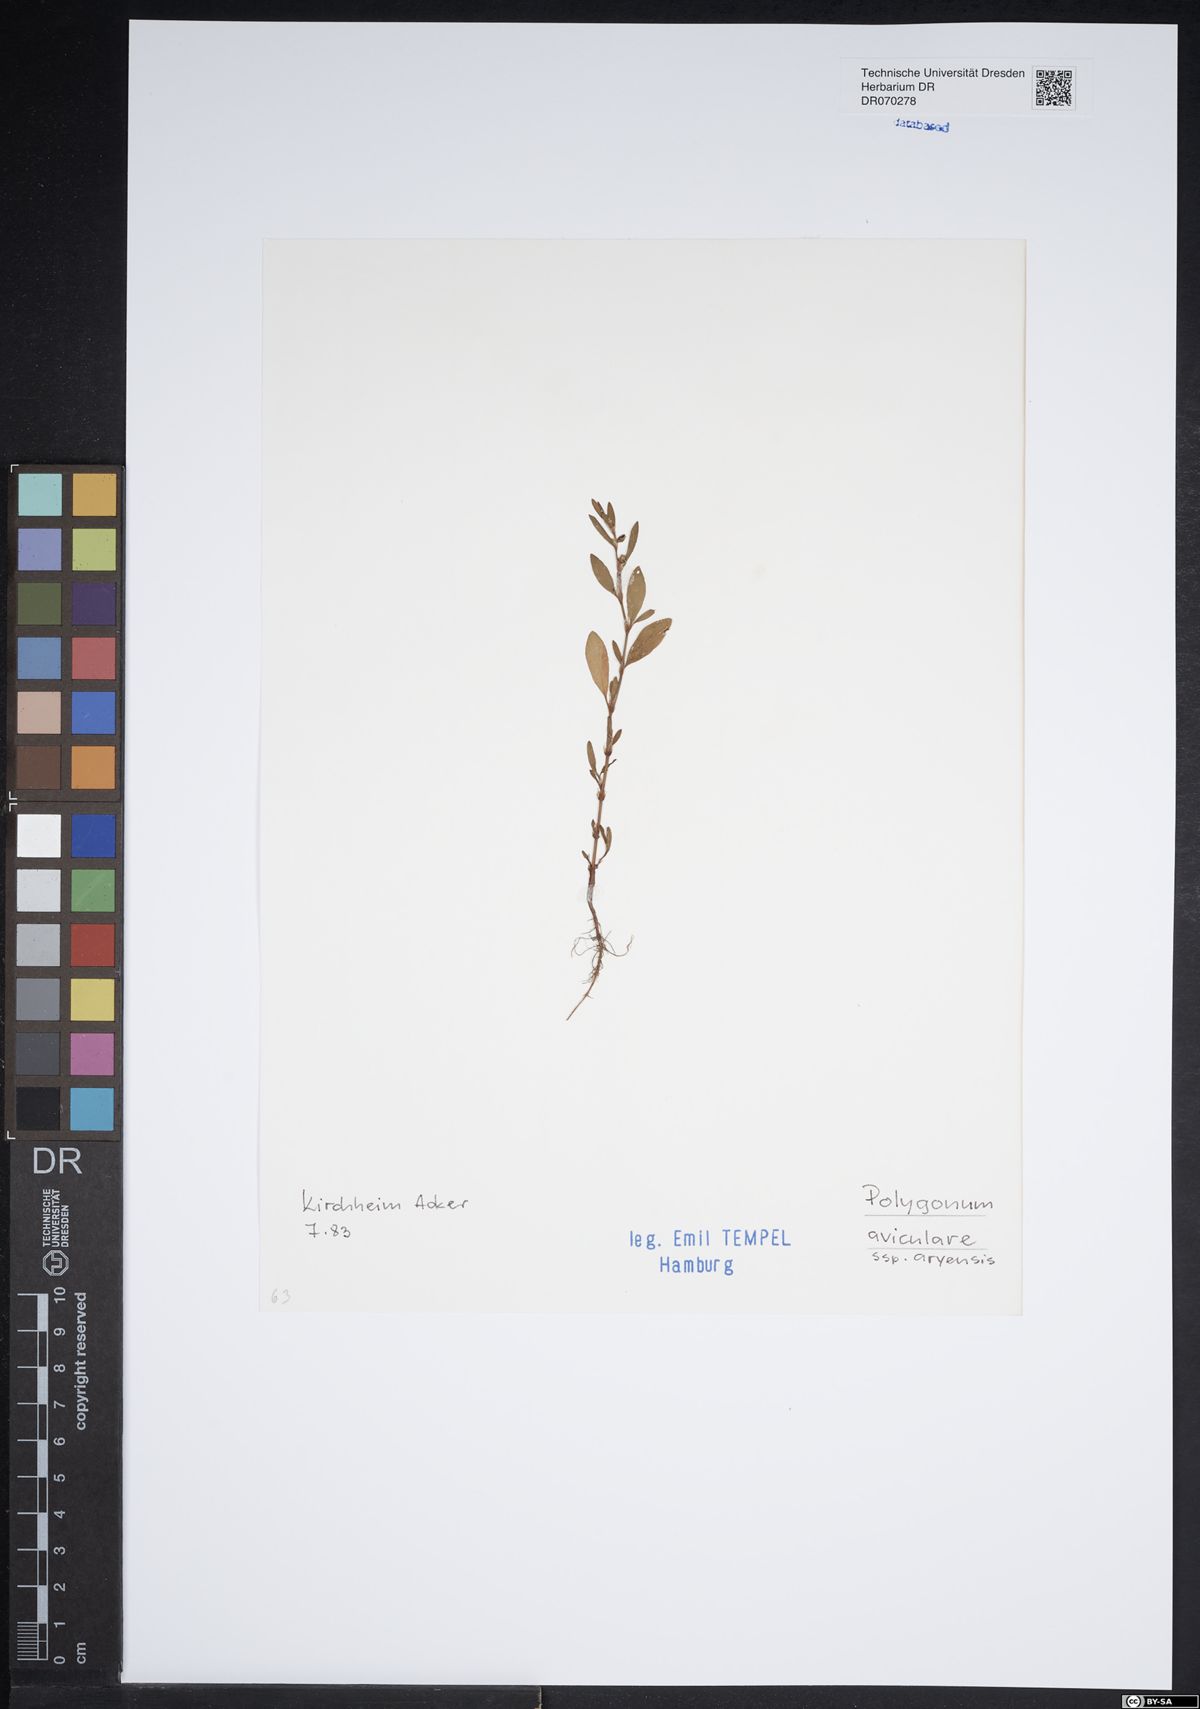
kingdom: Plantae
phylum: Tracheophyta
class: Magnoliopsida
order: Caryophyllales
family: Polygonaceae
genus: Polygonum
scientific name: Polygonum aviculare
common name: Prostrate knotweed
